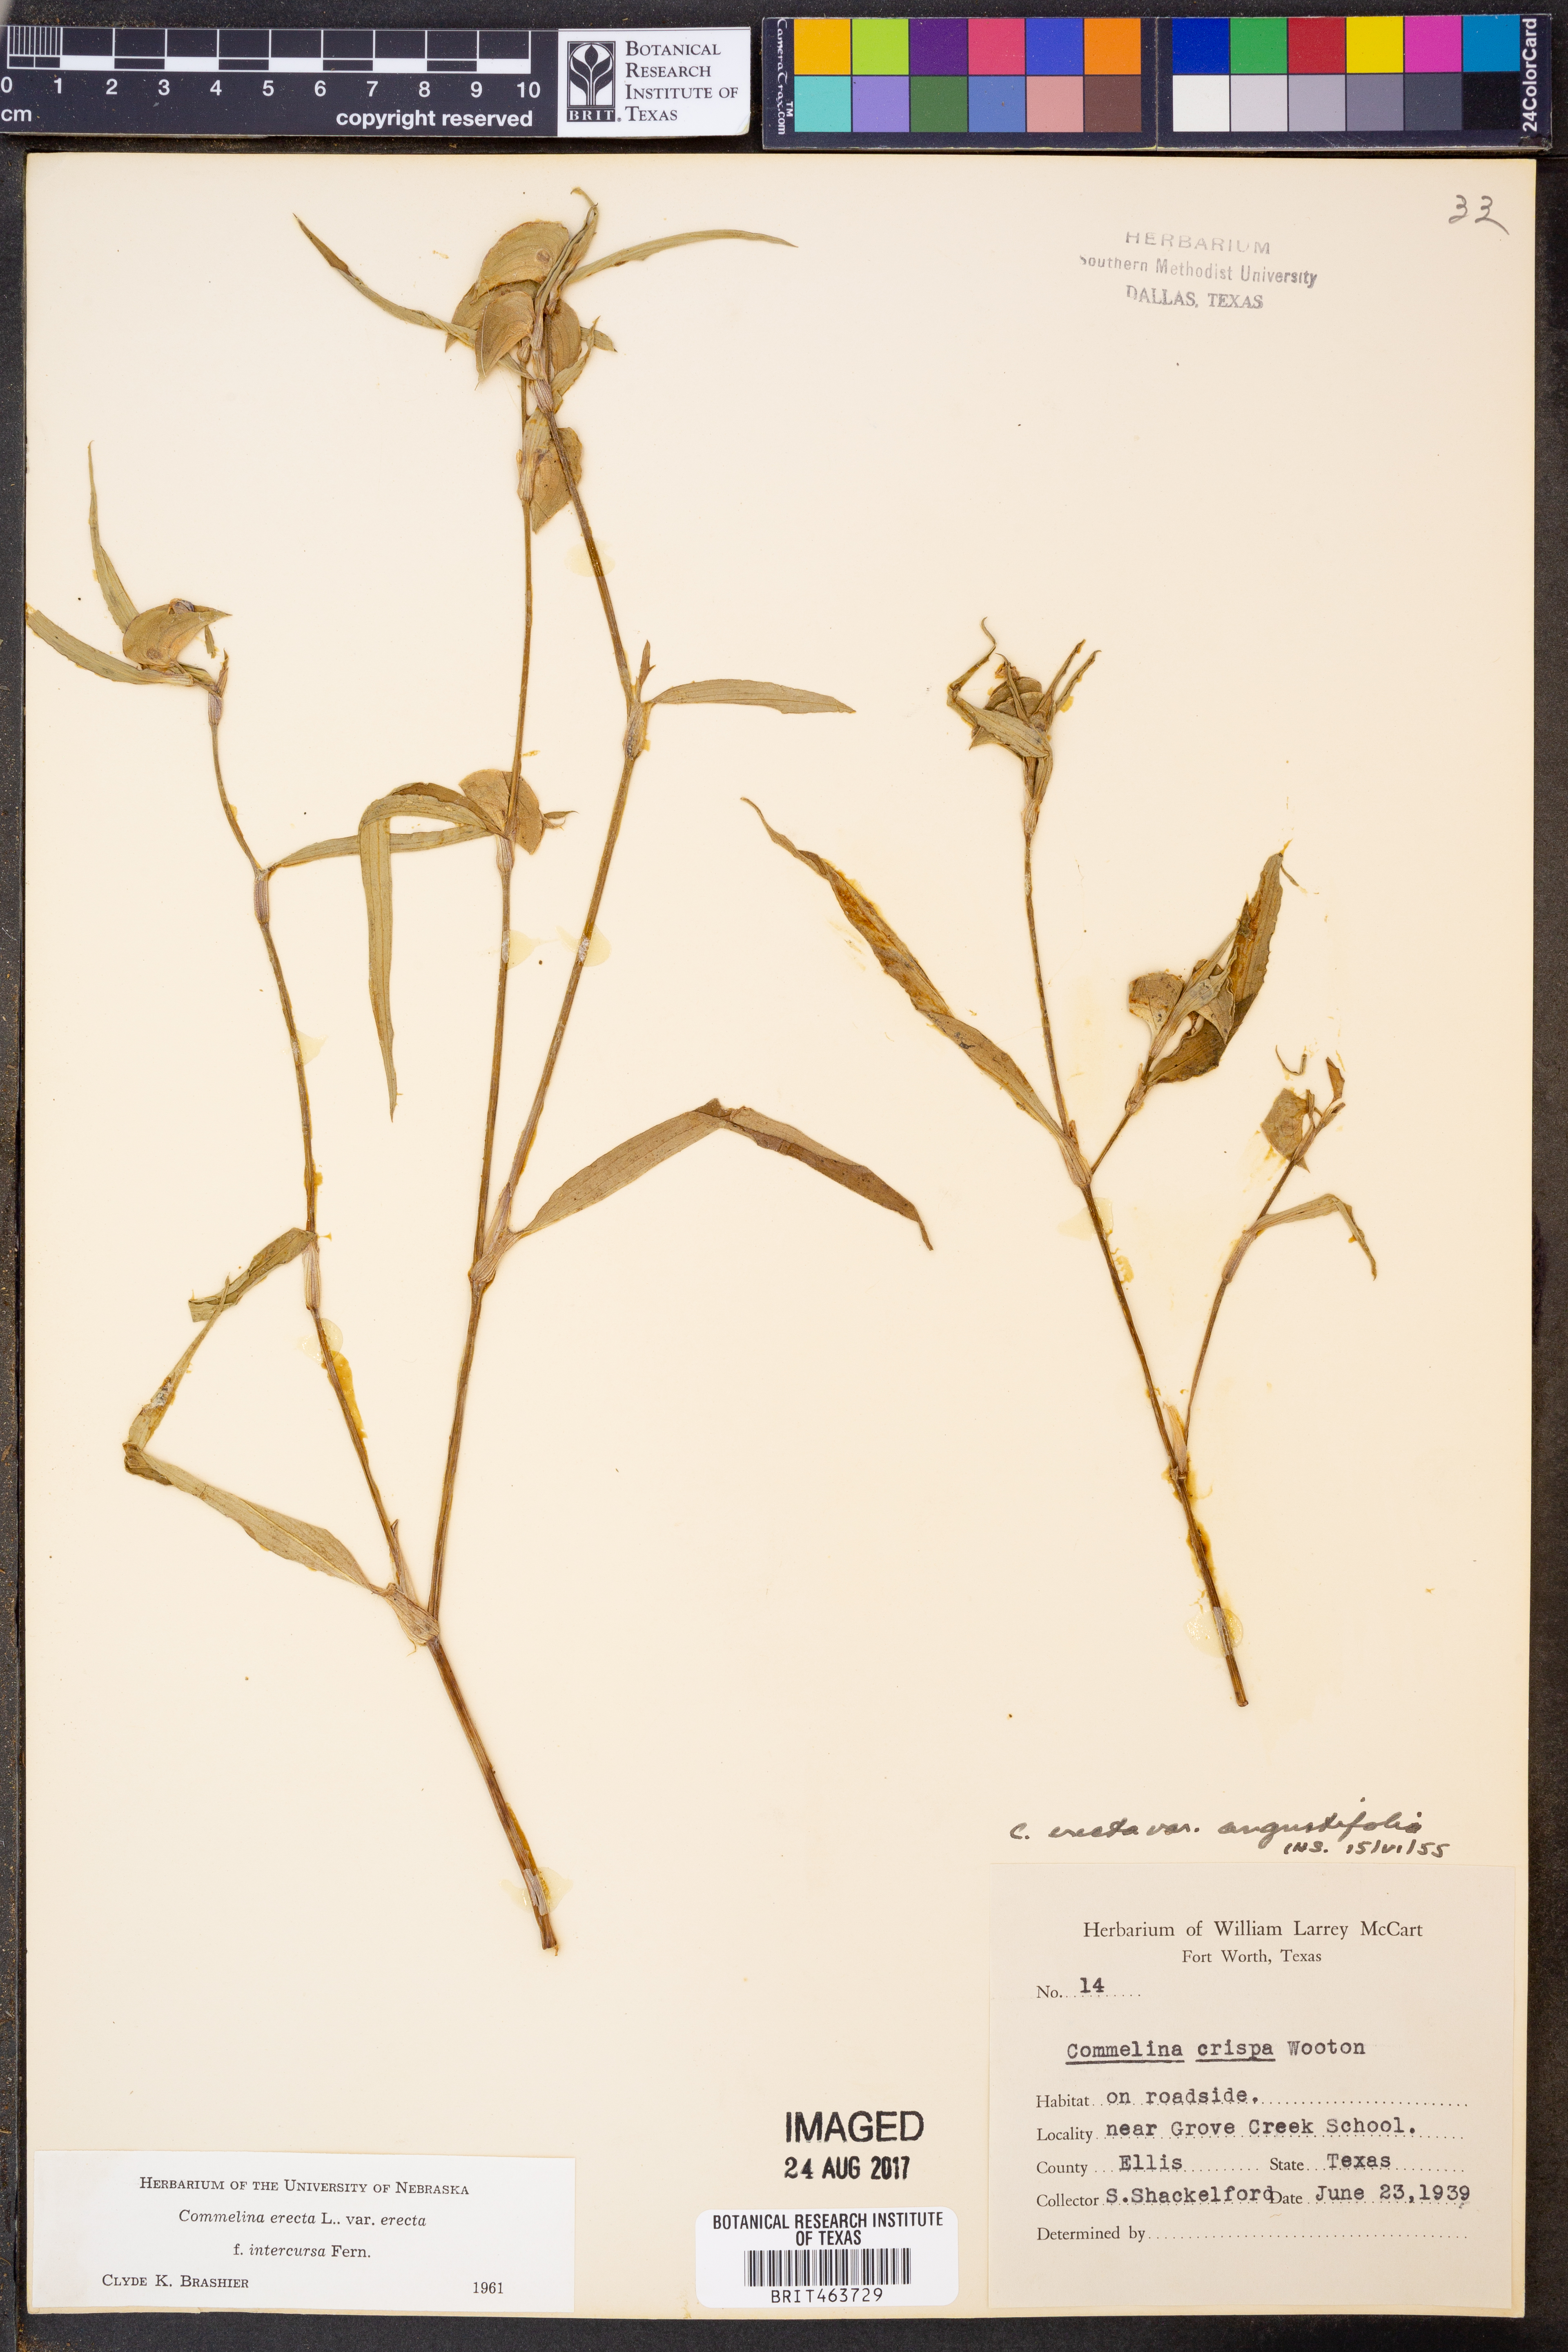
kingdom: Plantae
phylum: Tracheophyta
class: Liliopsida
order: Commelinales
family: Commelinaceae
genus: Commelina
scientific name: Commelina erecta
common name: Blousel blommetjie
